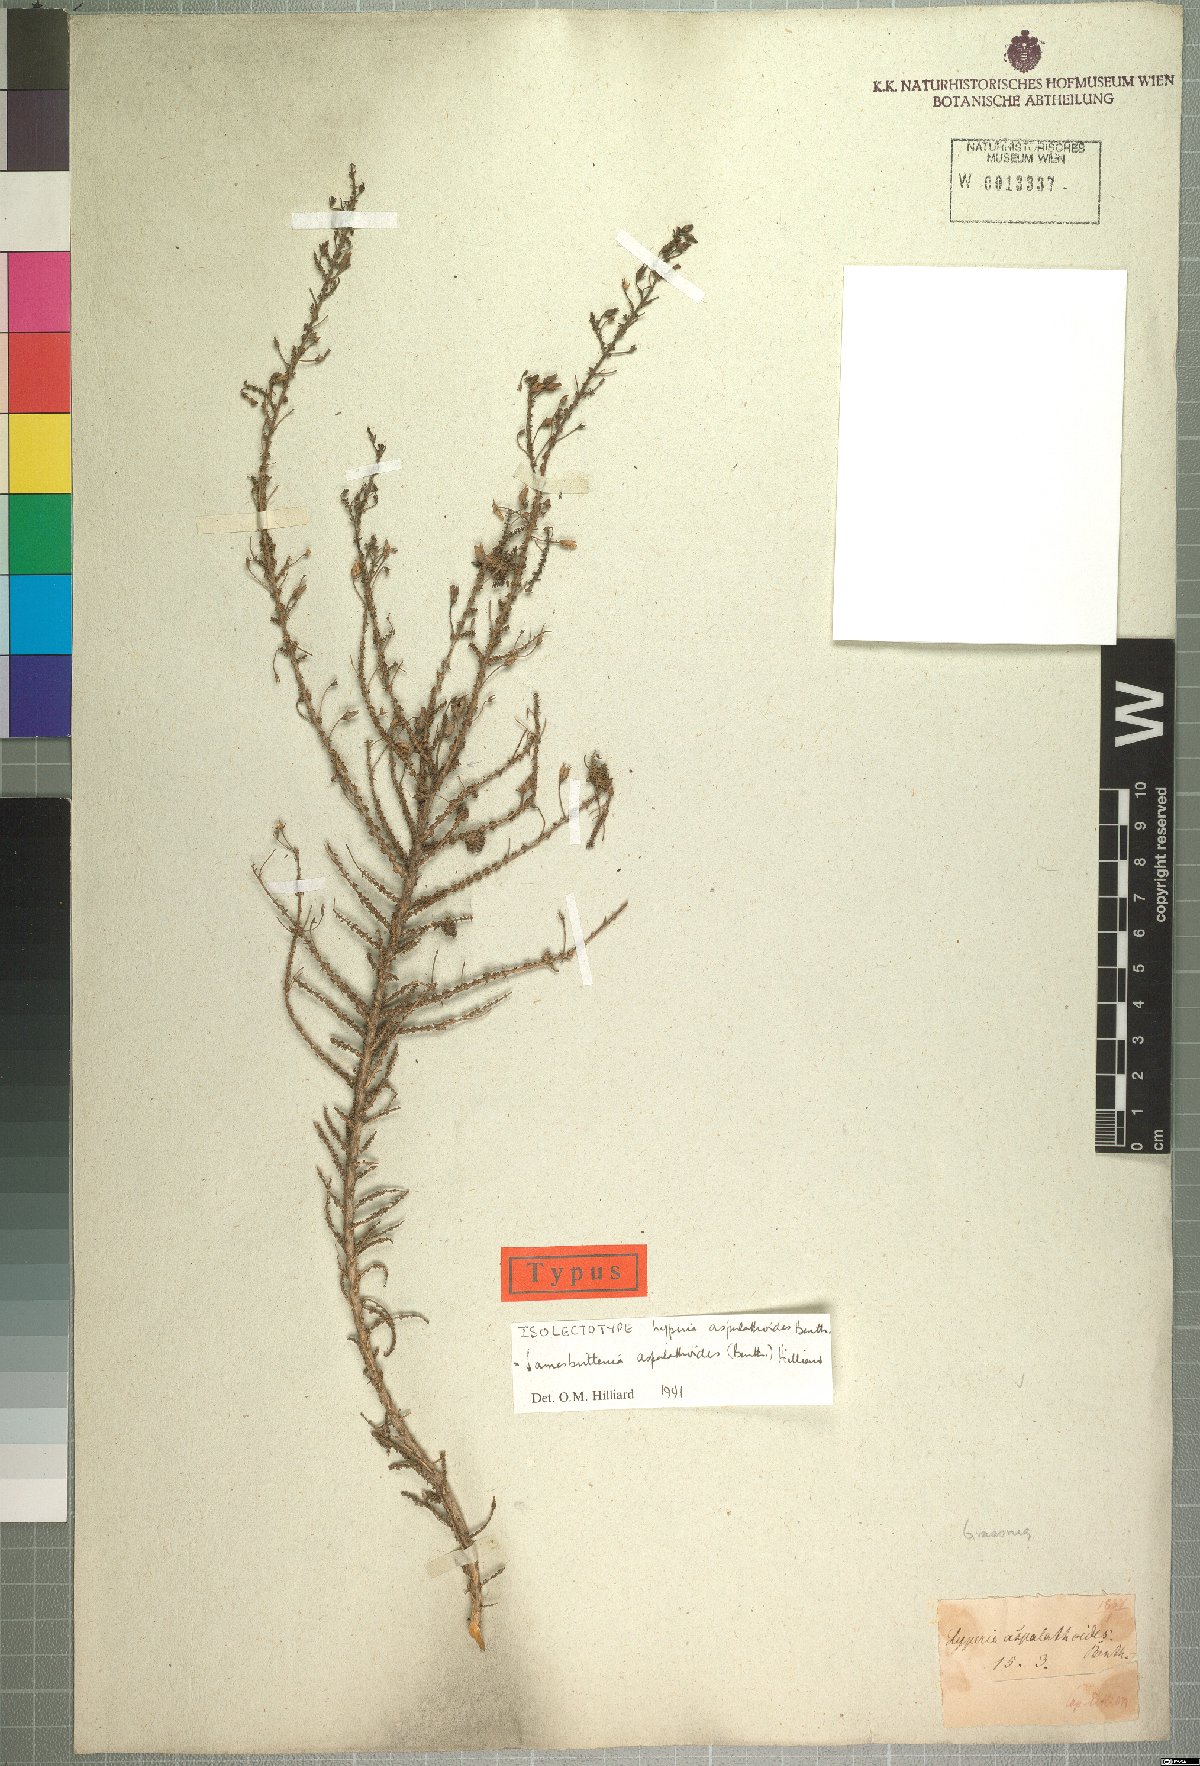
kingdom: Plantae
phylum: Tracheophyta
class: Magnoliopsida
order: Lamiales
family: Scrophulariaceae
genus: Jamesbrittenia
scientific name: Jamesbrittenia aspalathoides
